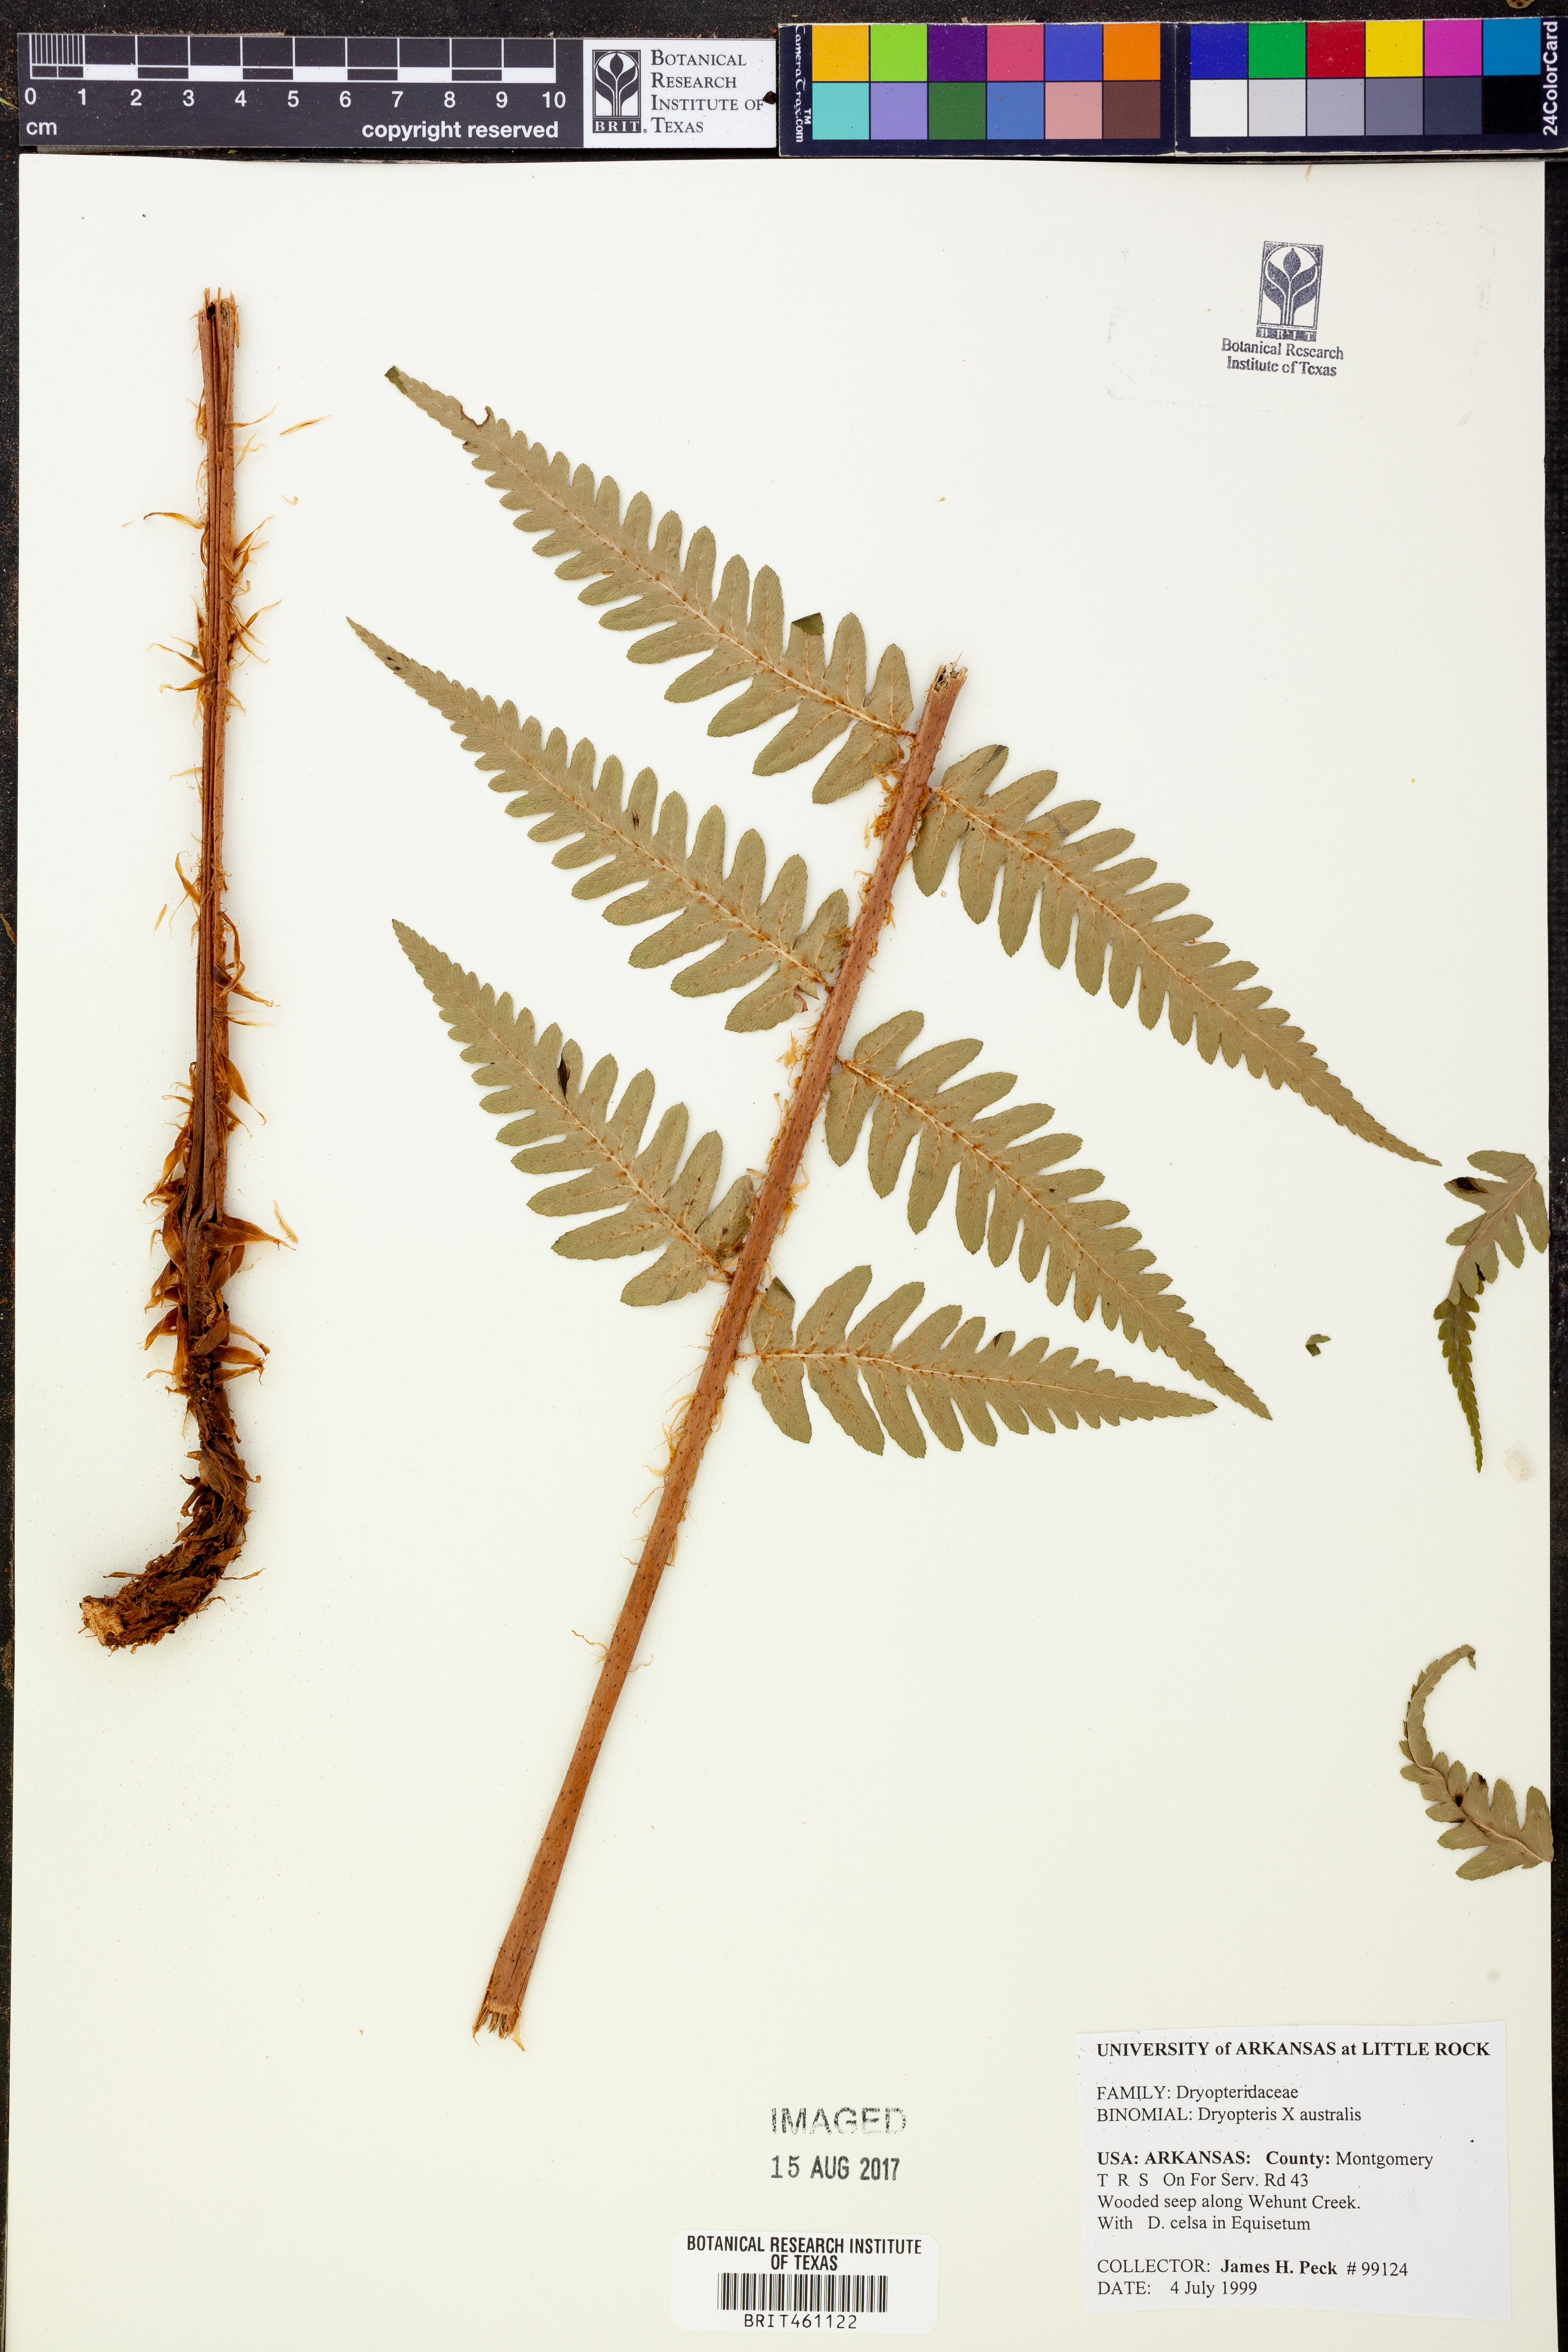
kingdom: Plantae
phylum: Tracheophyta
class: Polypodiopsida
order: Polypodiales
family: Dryopteridaceae
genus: Dryopteris
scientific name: Dryopteris
